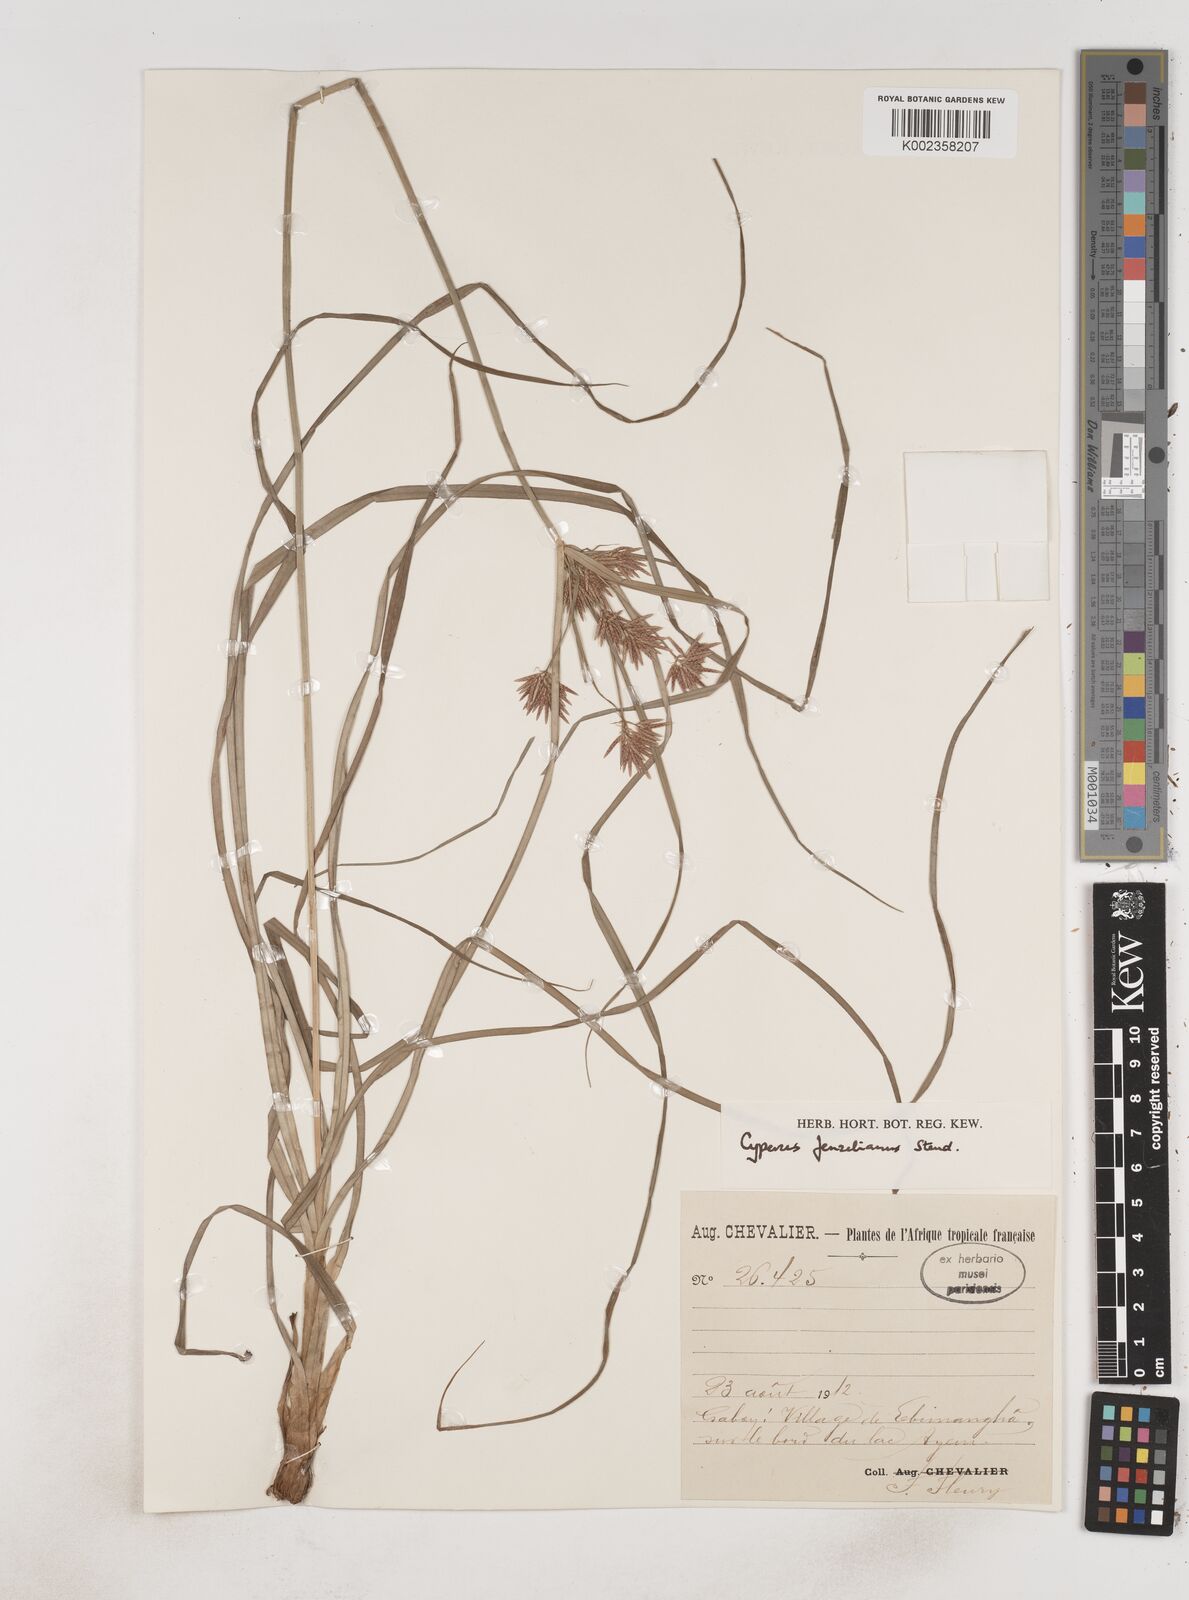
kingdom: Plantae
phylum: Tracheophyta
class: Liliopsida
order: Poales
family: Cyperaceae
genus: Cyperus
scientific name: Cyperus longus
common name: Galingale
